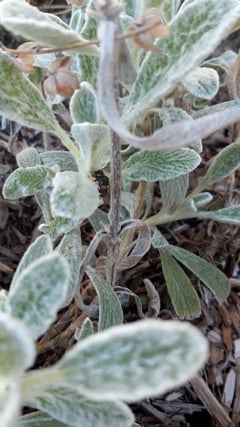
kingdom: Animalia
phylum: Arthropoda
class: Insecta
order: Hymenoptera
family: Megachilidae
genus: Anthidium
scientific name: Anthidium manicatum
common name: Wool carder bee
